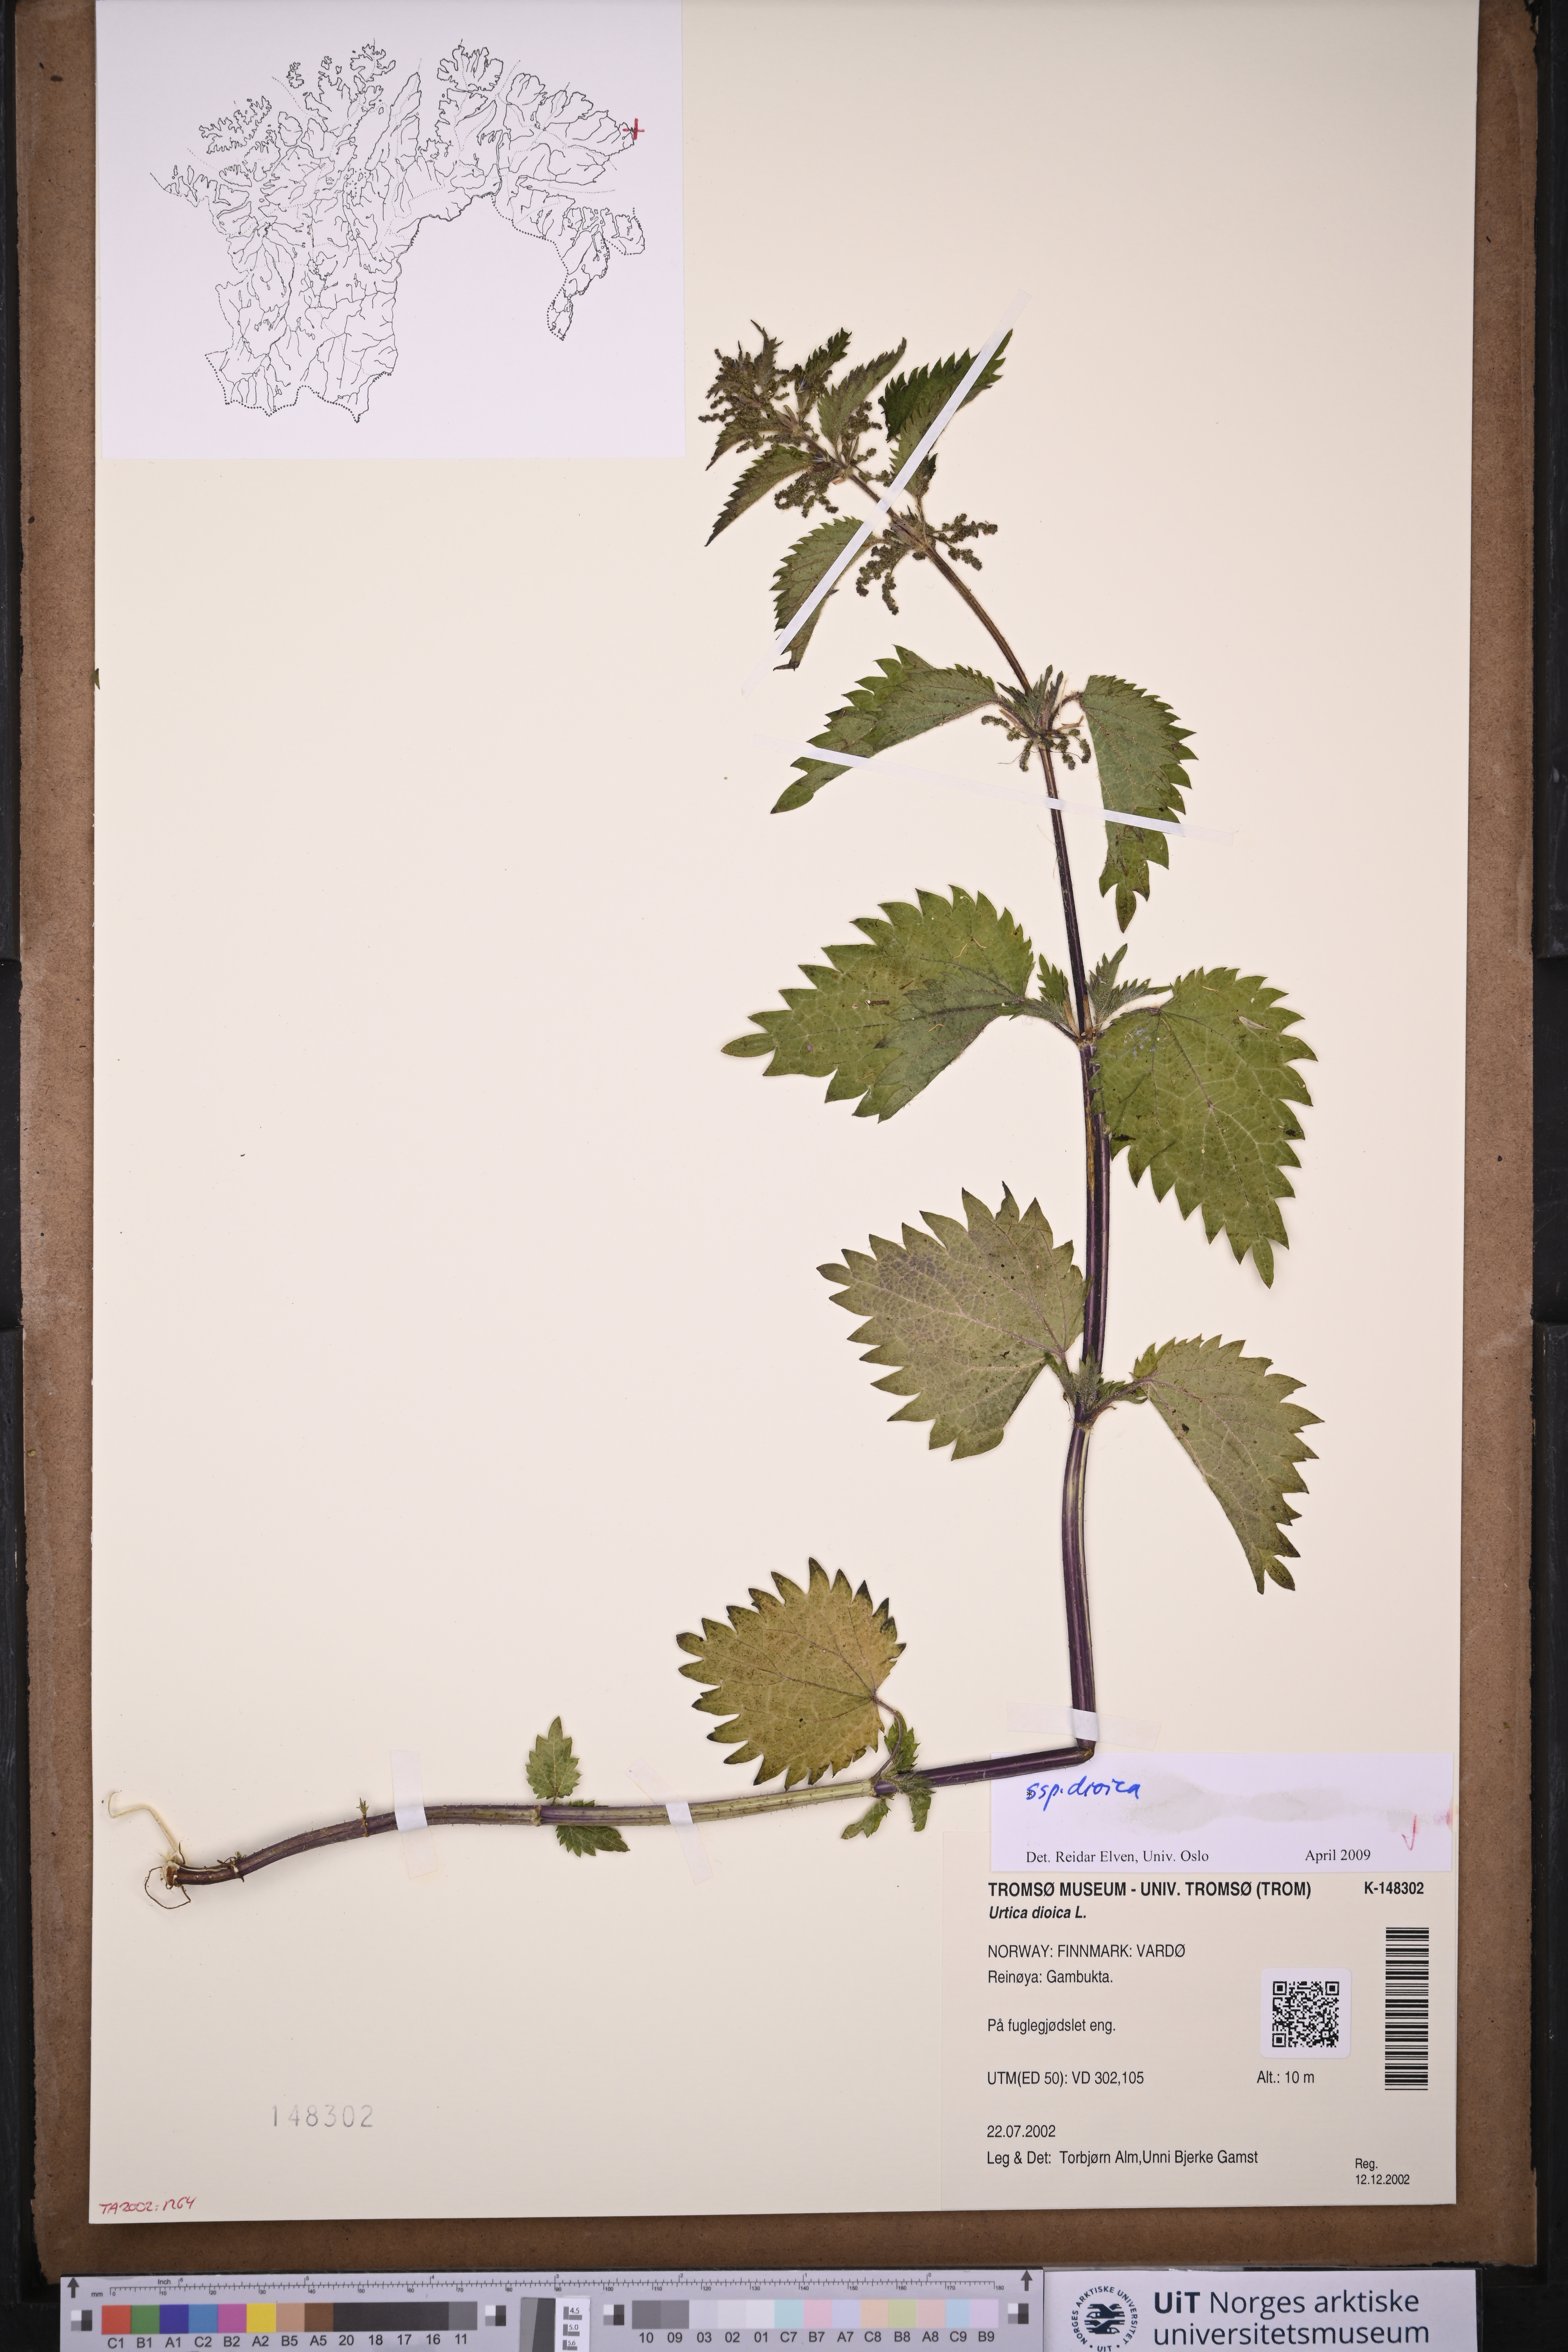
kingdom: Plantae
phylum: Tracheophyta
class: Magnoliopsida
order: Rosales
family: Urticaceae
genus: Urtica
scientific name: Urtica dioica
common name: Common nettle
